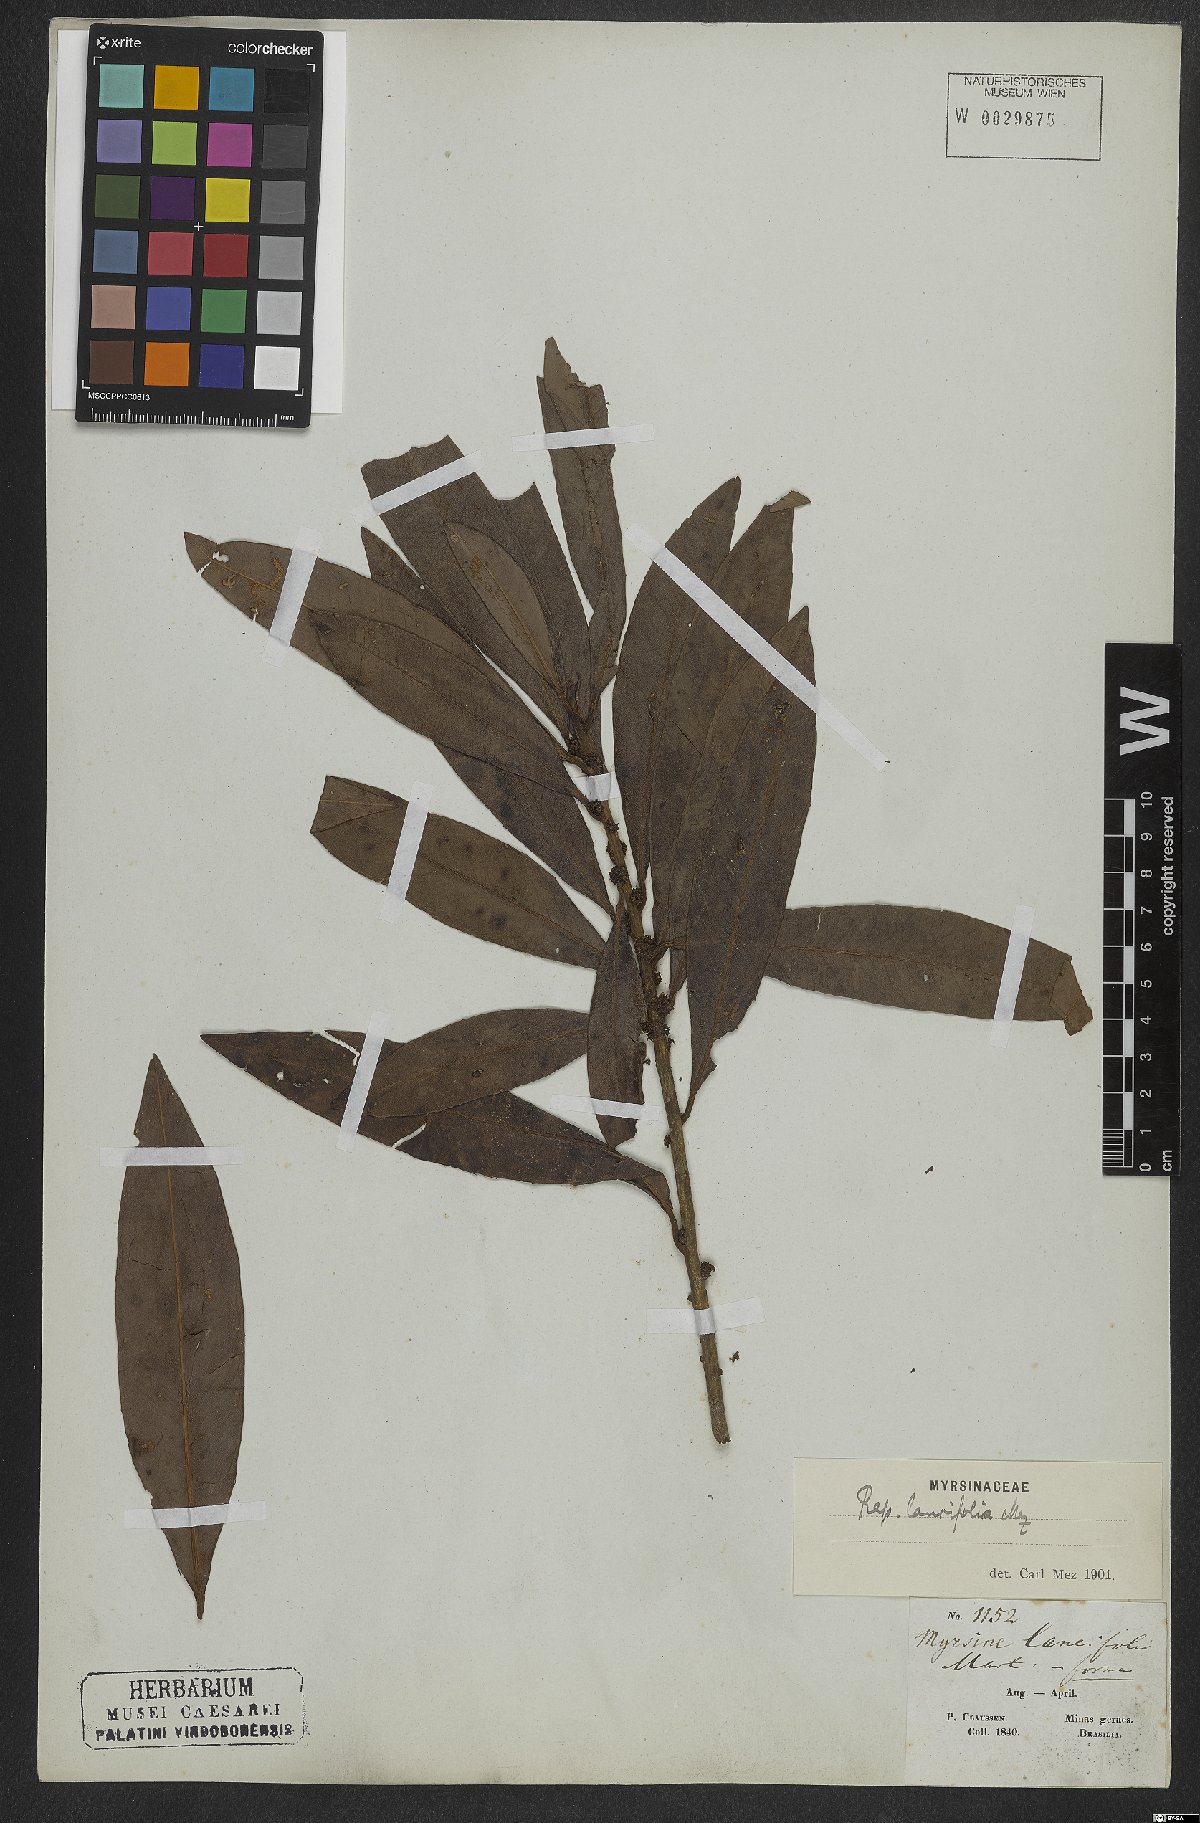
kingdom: Plantae
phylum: Tracheophyta
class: Magnoliopsida
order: Ericales
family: Primulaceae
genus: Myrsine
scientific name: Myrsine lancifolia
